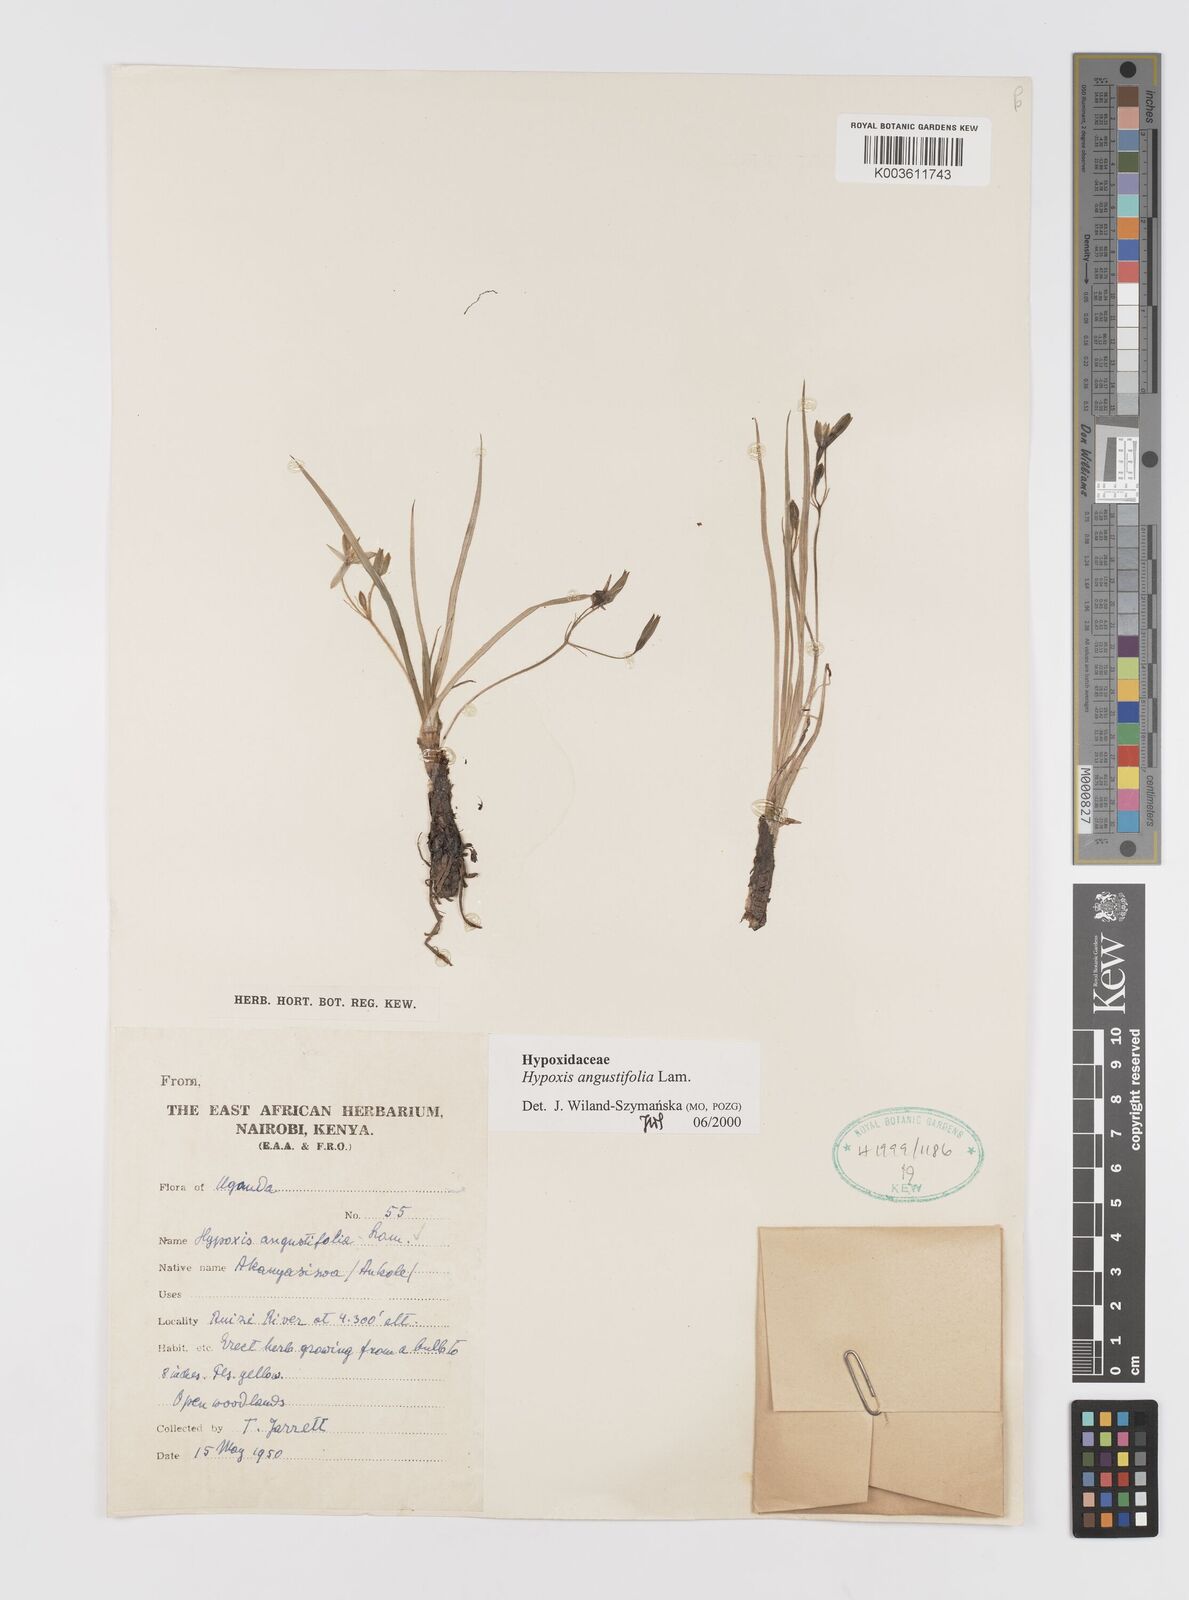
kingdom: Plantae
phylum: Tracheophyta
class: Liliopsida
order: Asparagales
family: Hypoxidaceae
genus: Hypoxis
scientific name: Hypoxis angustifolia
